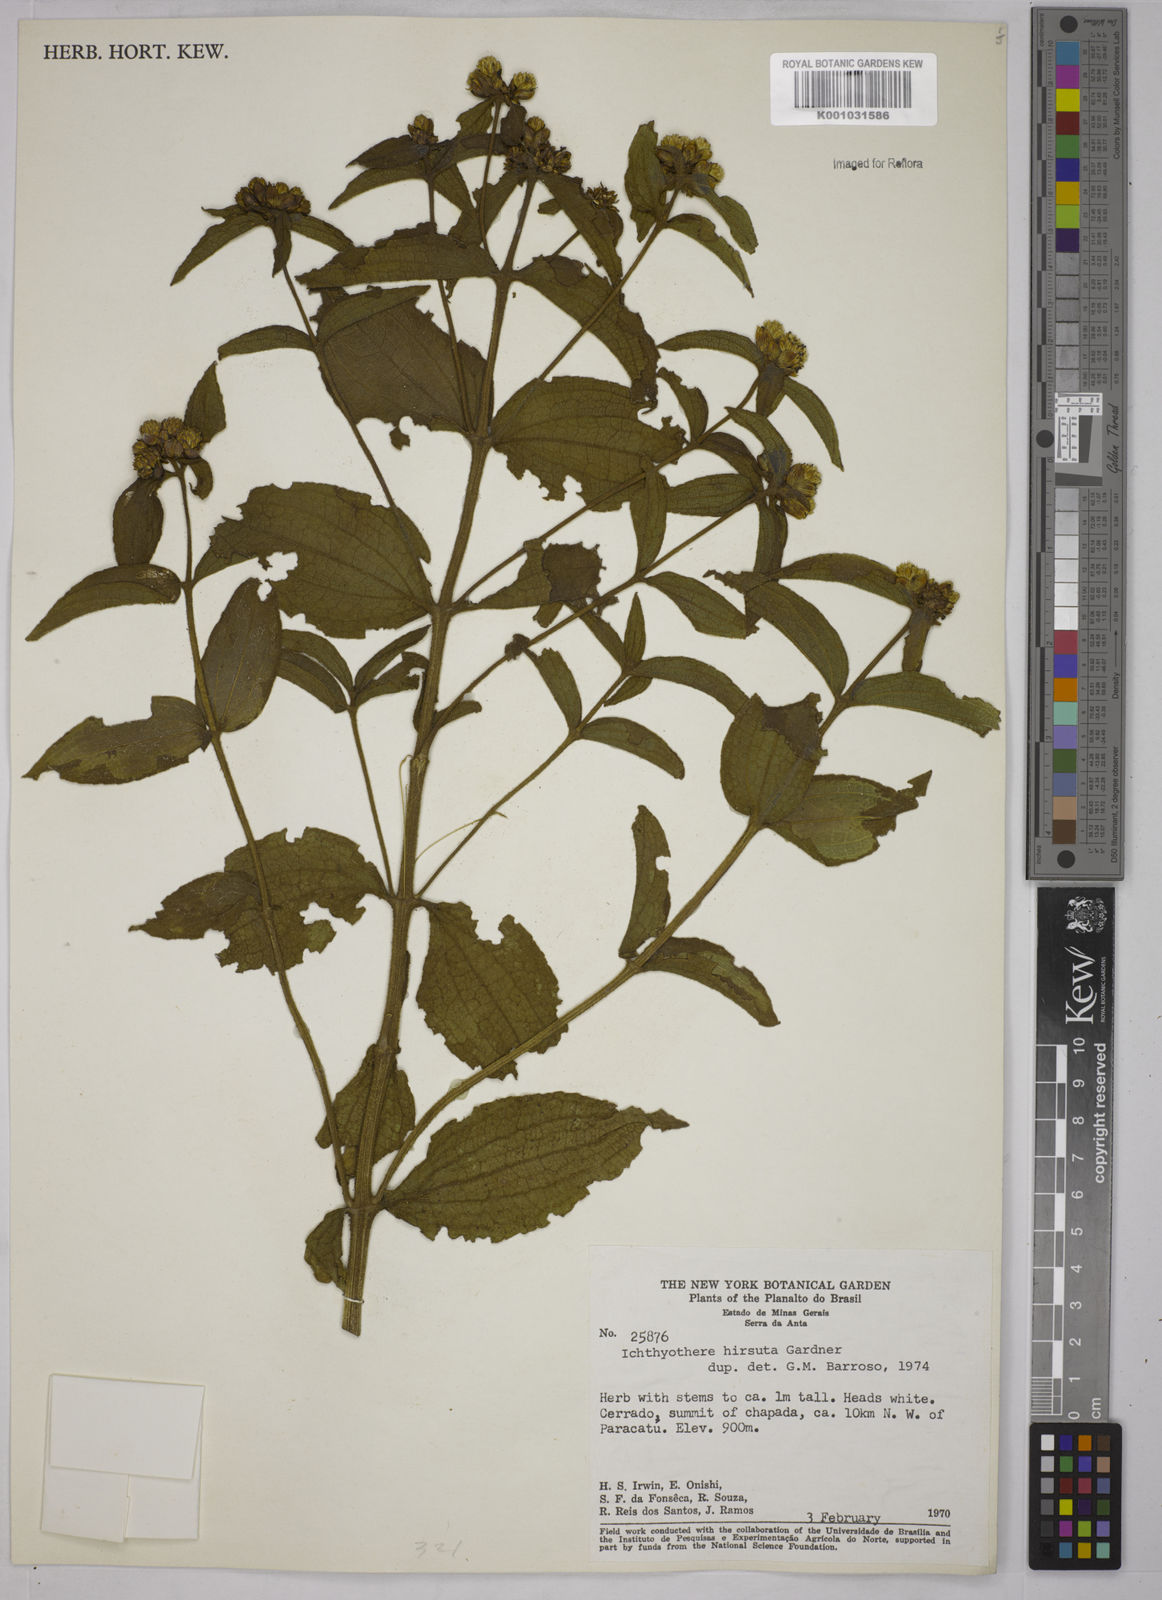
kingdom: Plantae
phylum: Tracheophyta
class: Magnoliopsida
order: Asterales
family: Asteraceae
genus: Ichthyothere
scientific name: Ichthyothere hirsuta
